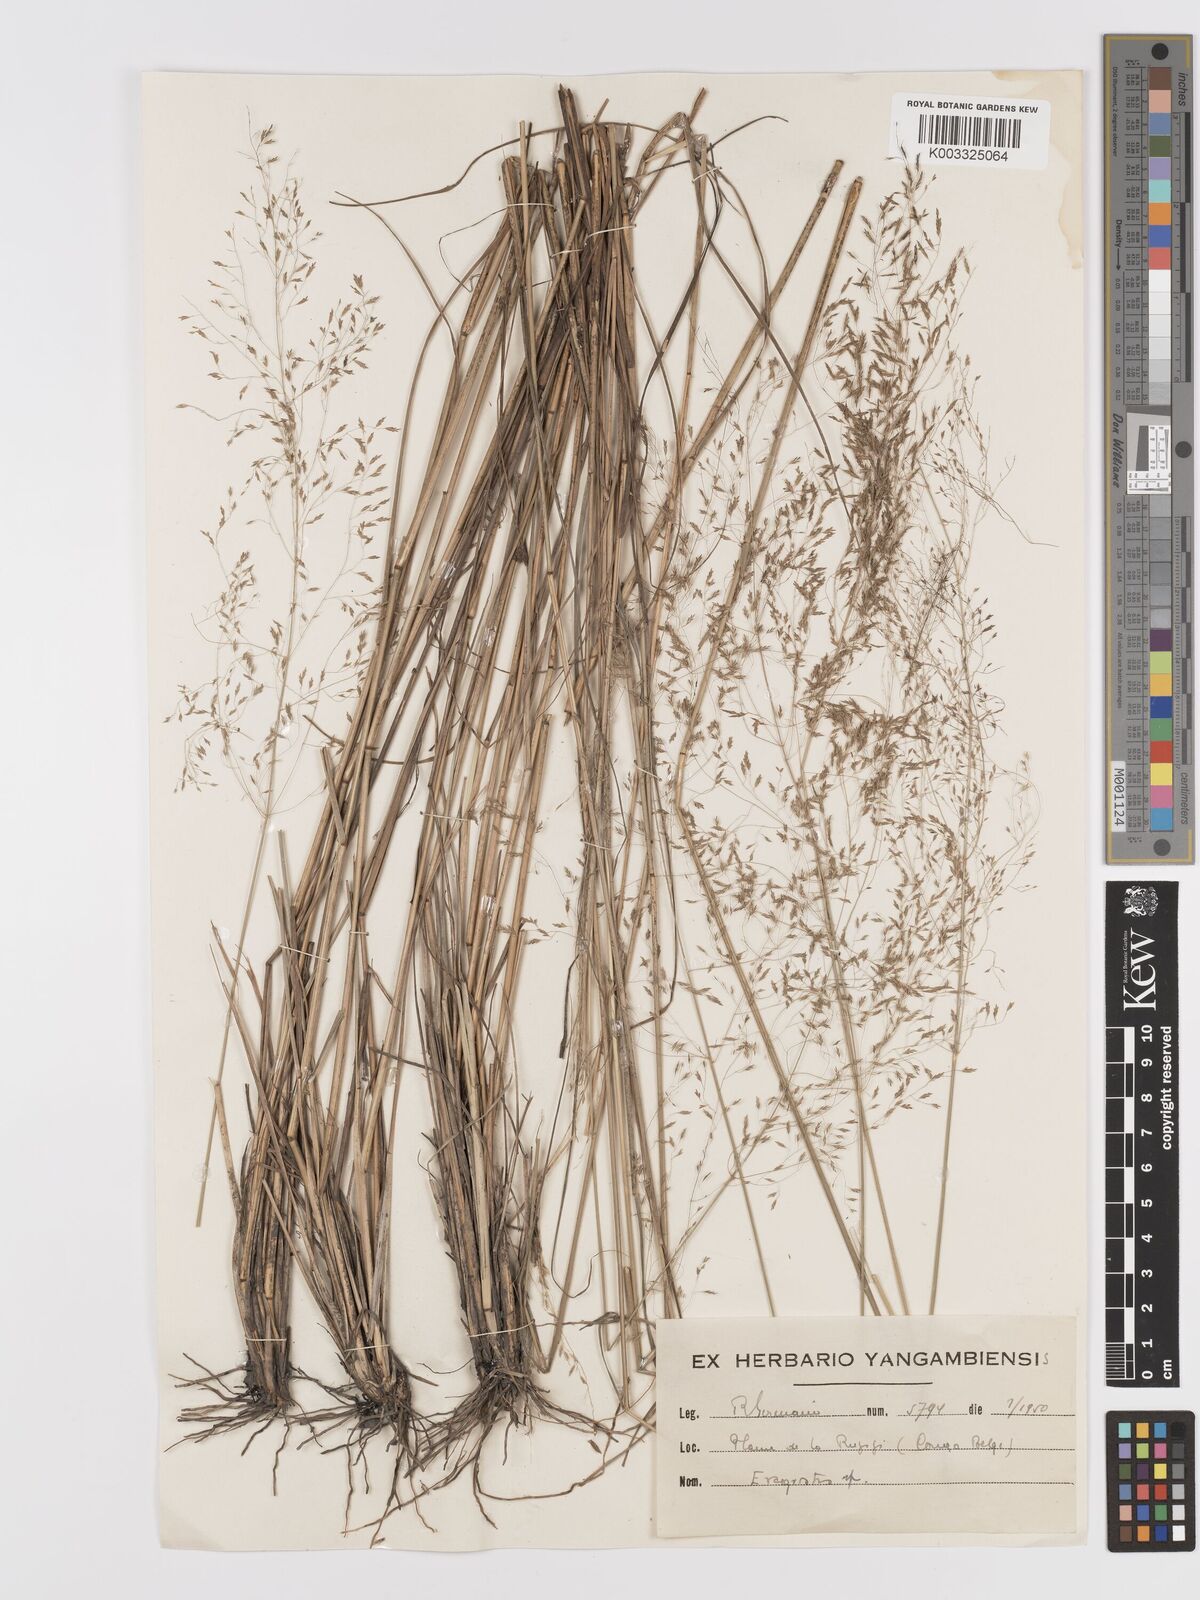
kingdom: Plantae
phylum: Tracheophyta
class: Liliopsida
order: Poales
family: Poaceae
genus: Eragrostis
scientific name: Eragrostis
